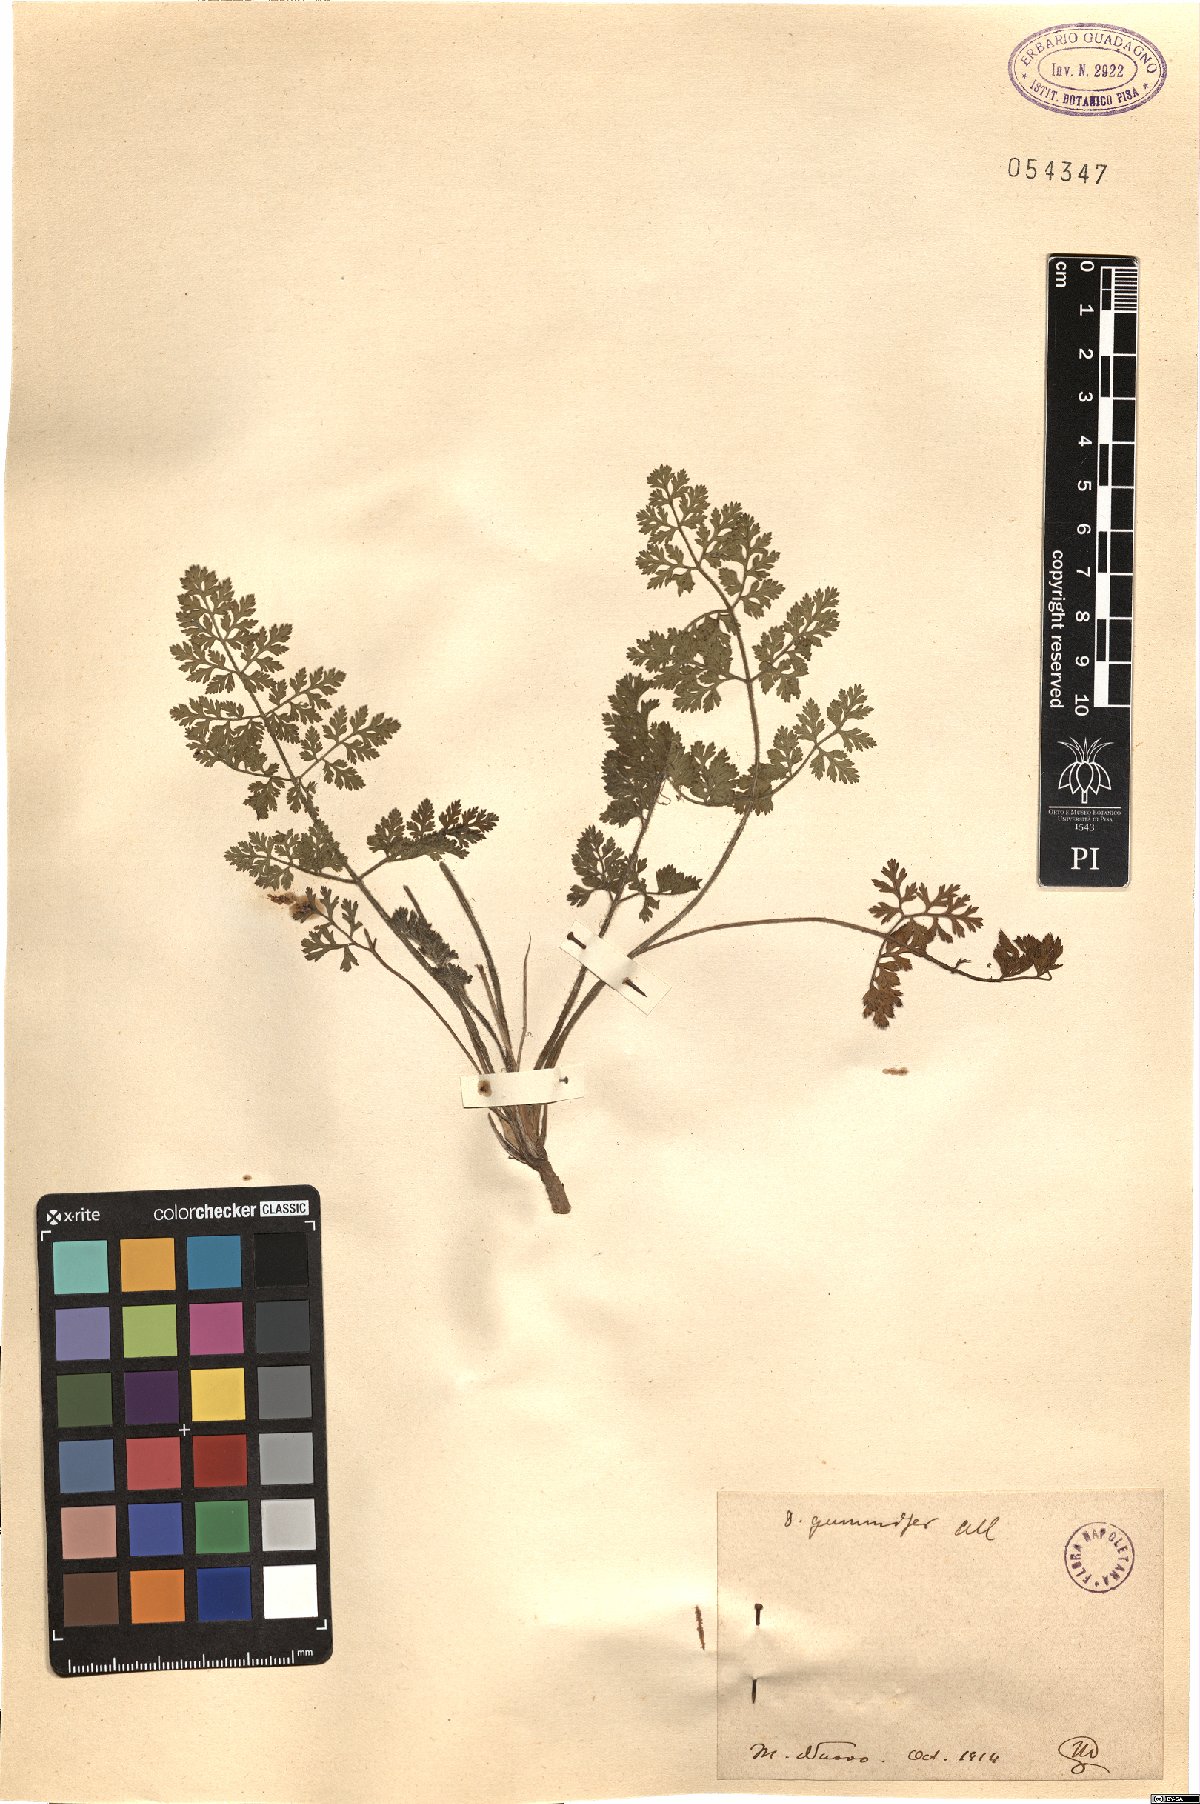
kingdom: Plantae
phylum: Tracheophyta
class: Magnoliopsida
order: Apiales
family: Apiaceae
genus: Daucus
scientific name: Daucus carota
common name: Wild carrot
